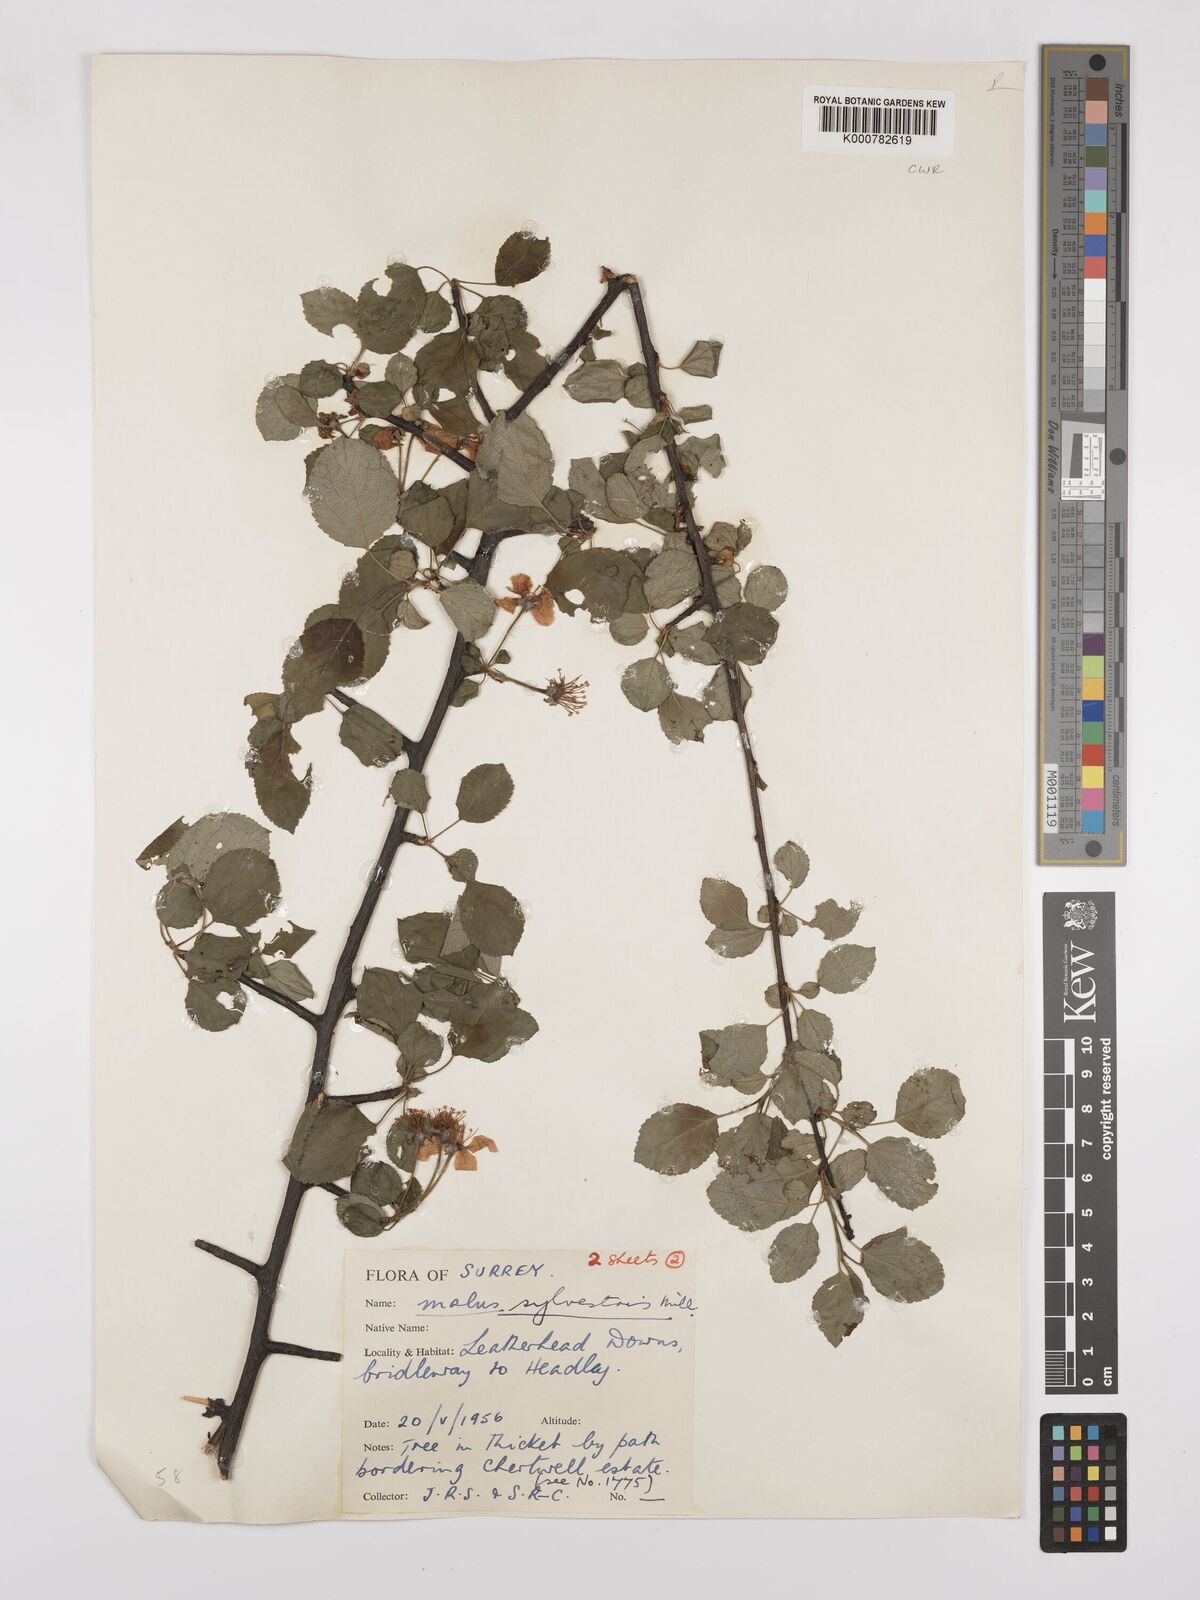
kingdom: Plantae
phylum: Tracheophyta
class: Magnoliopsida
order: Rosales
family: Rosaceae
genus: Malus
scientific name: Malus sylvestris
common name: Crab apple
